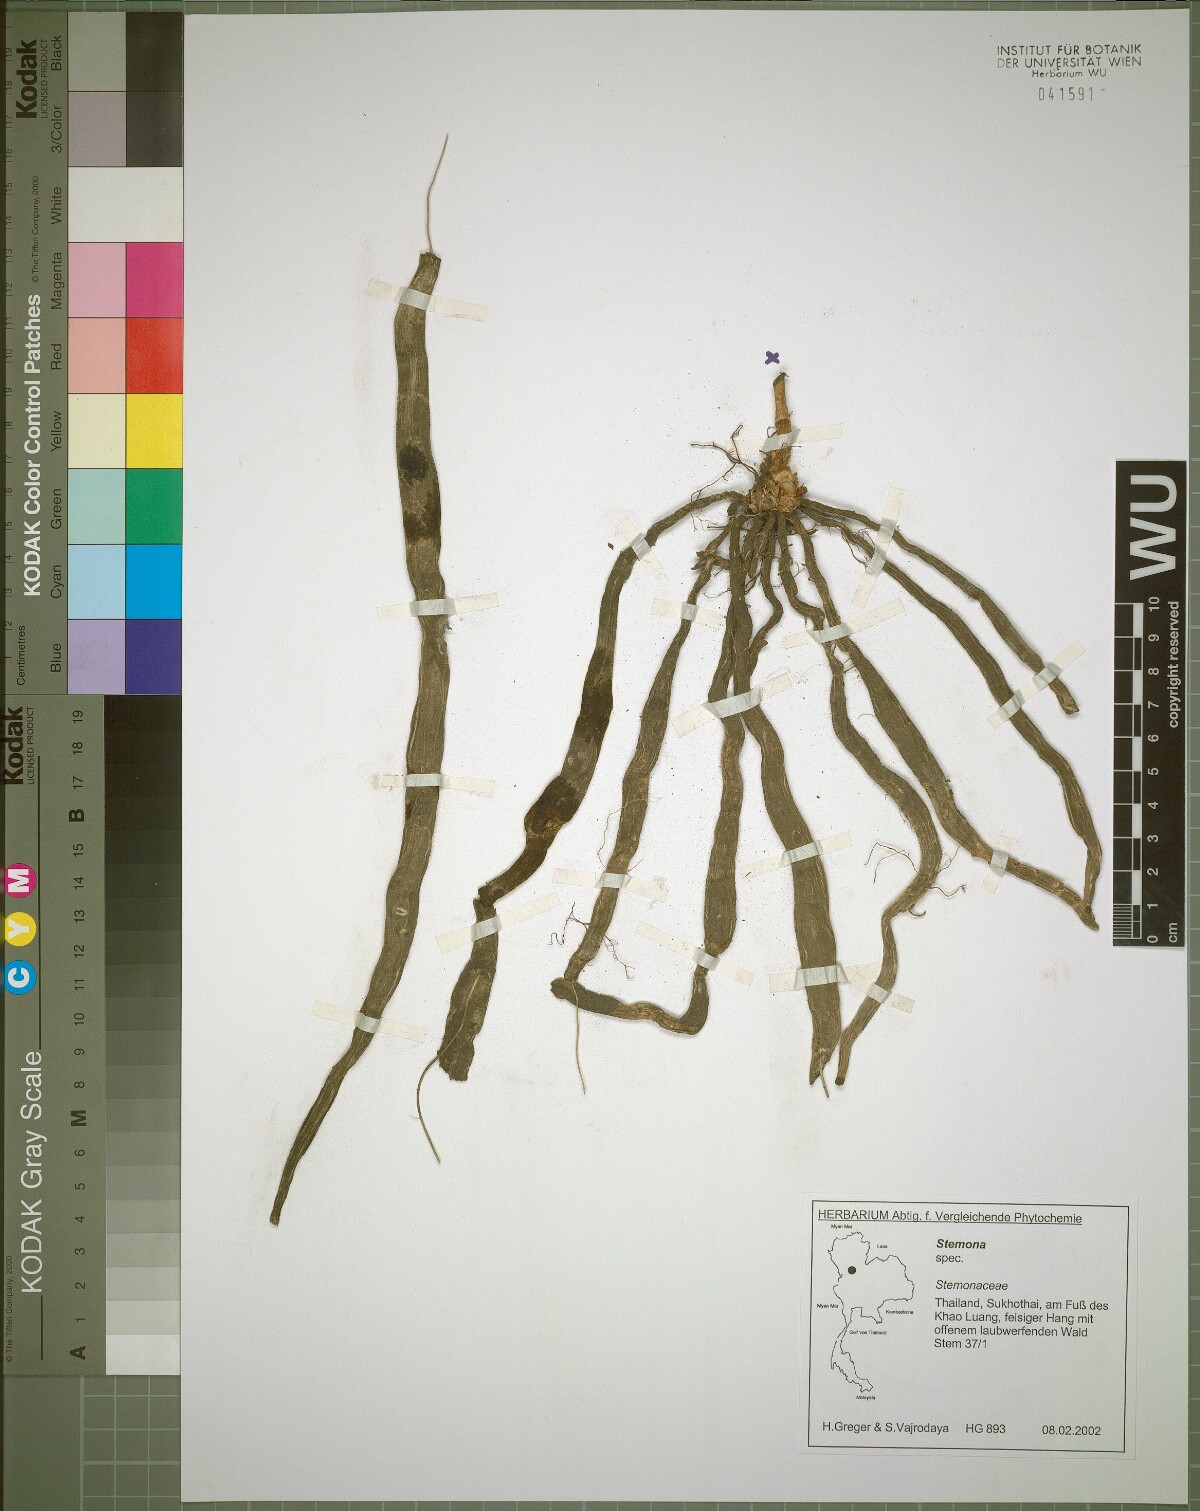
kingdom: Plantae
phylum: Tracheophyta
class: Liliopsida
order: Pandanales
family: Stemonaceae
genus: Stemona
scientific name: Stemona aphylla
